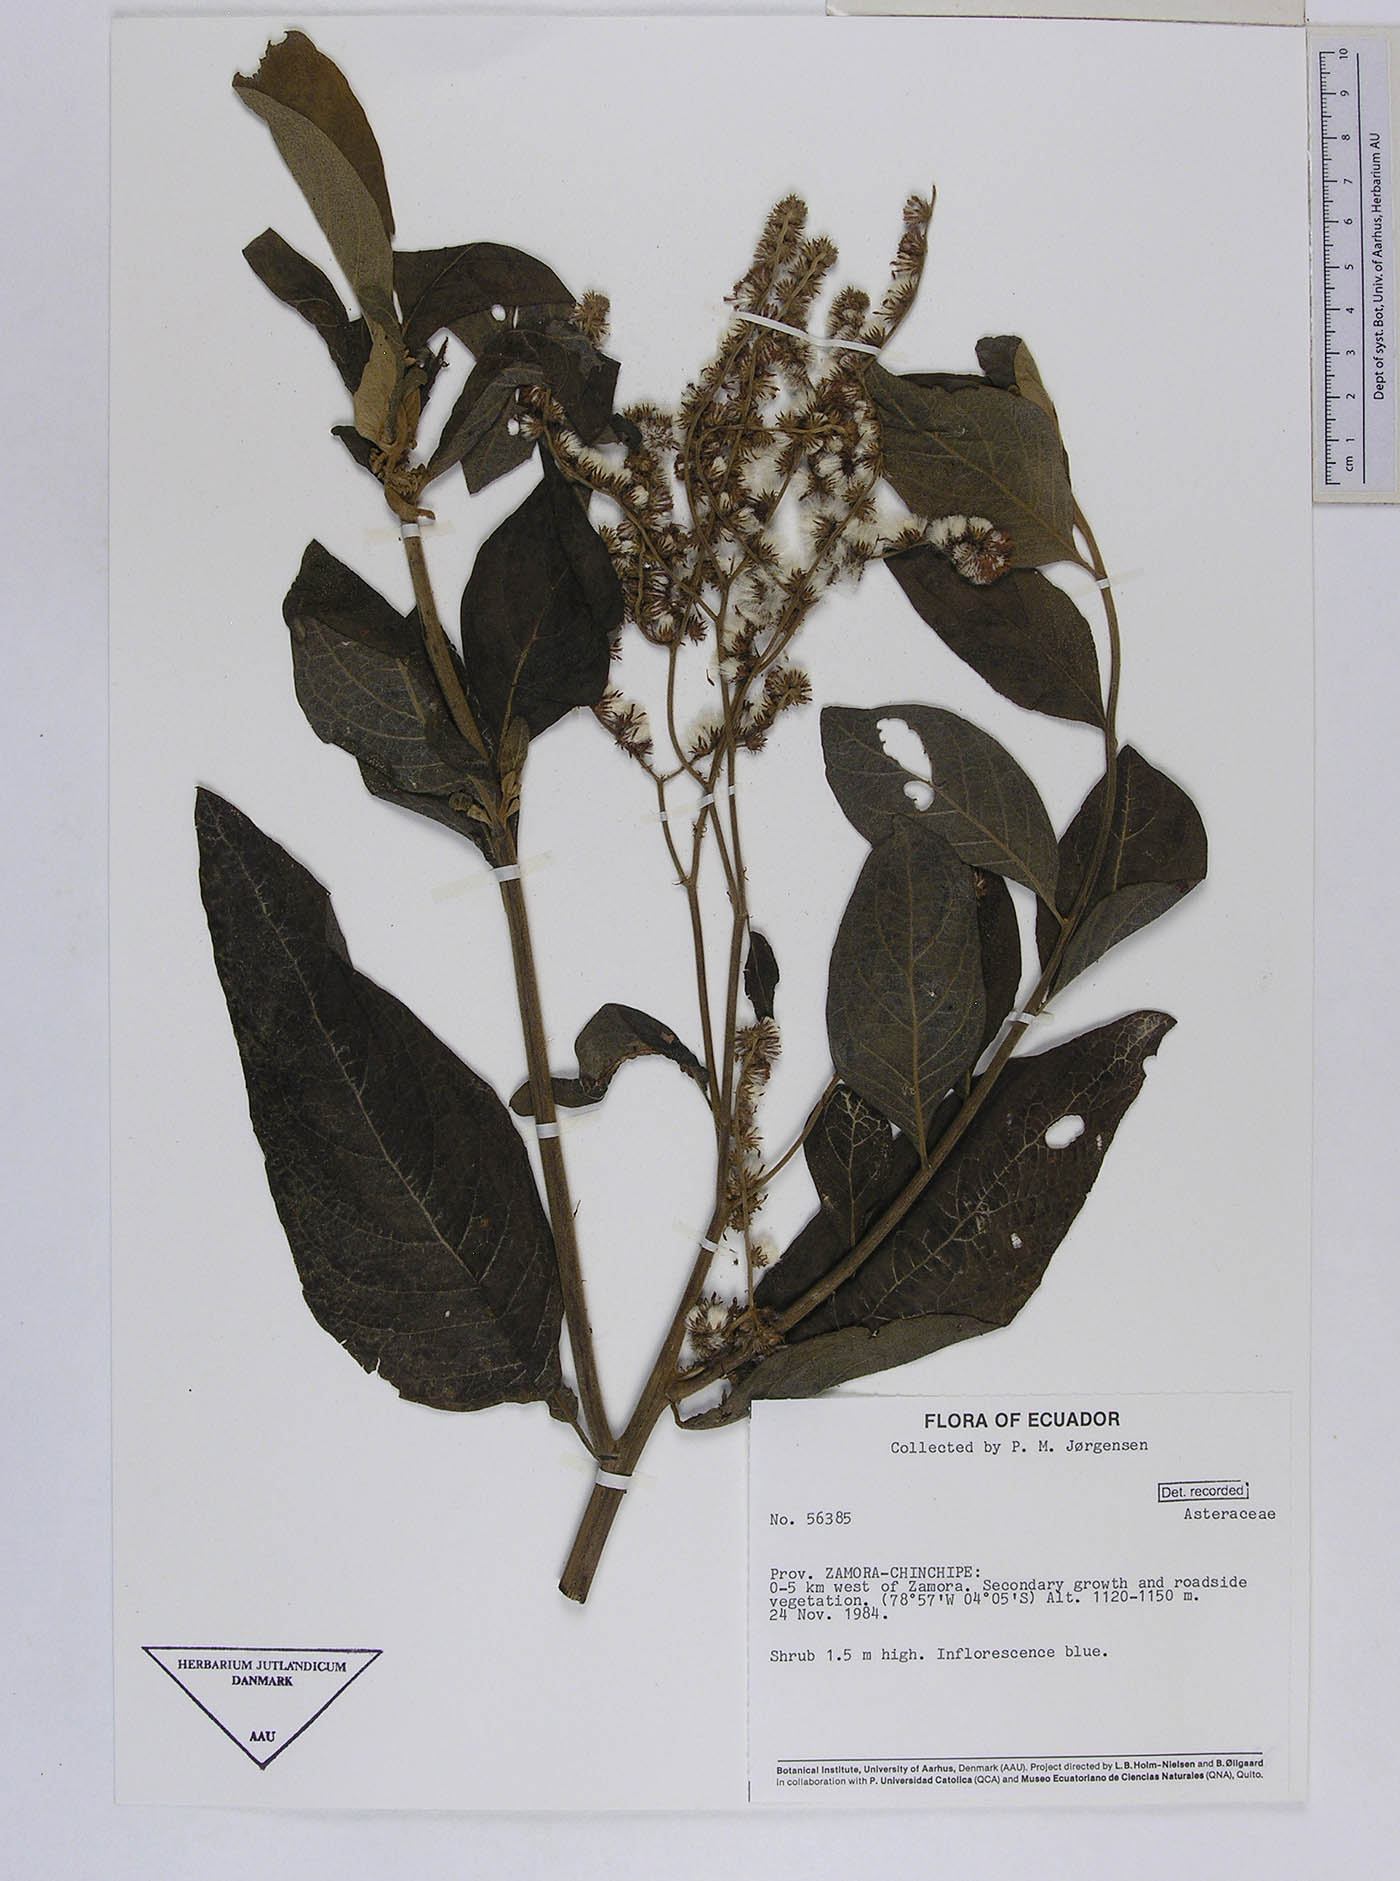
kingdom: Plantae
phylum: Tracheophyta
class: Magnoliopsida
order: Asterales
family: Asteraceae
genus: Cyrtocymura
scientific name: Cyrtocymura scorpioides
